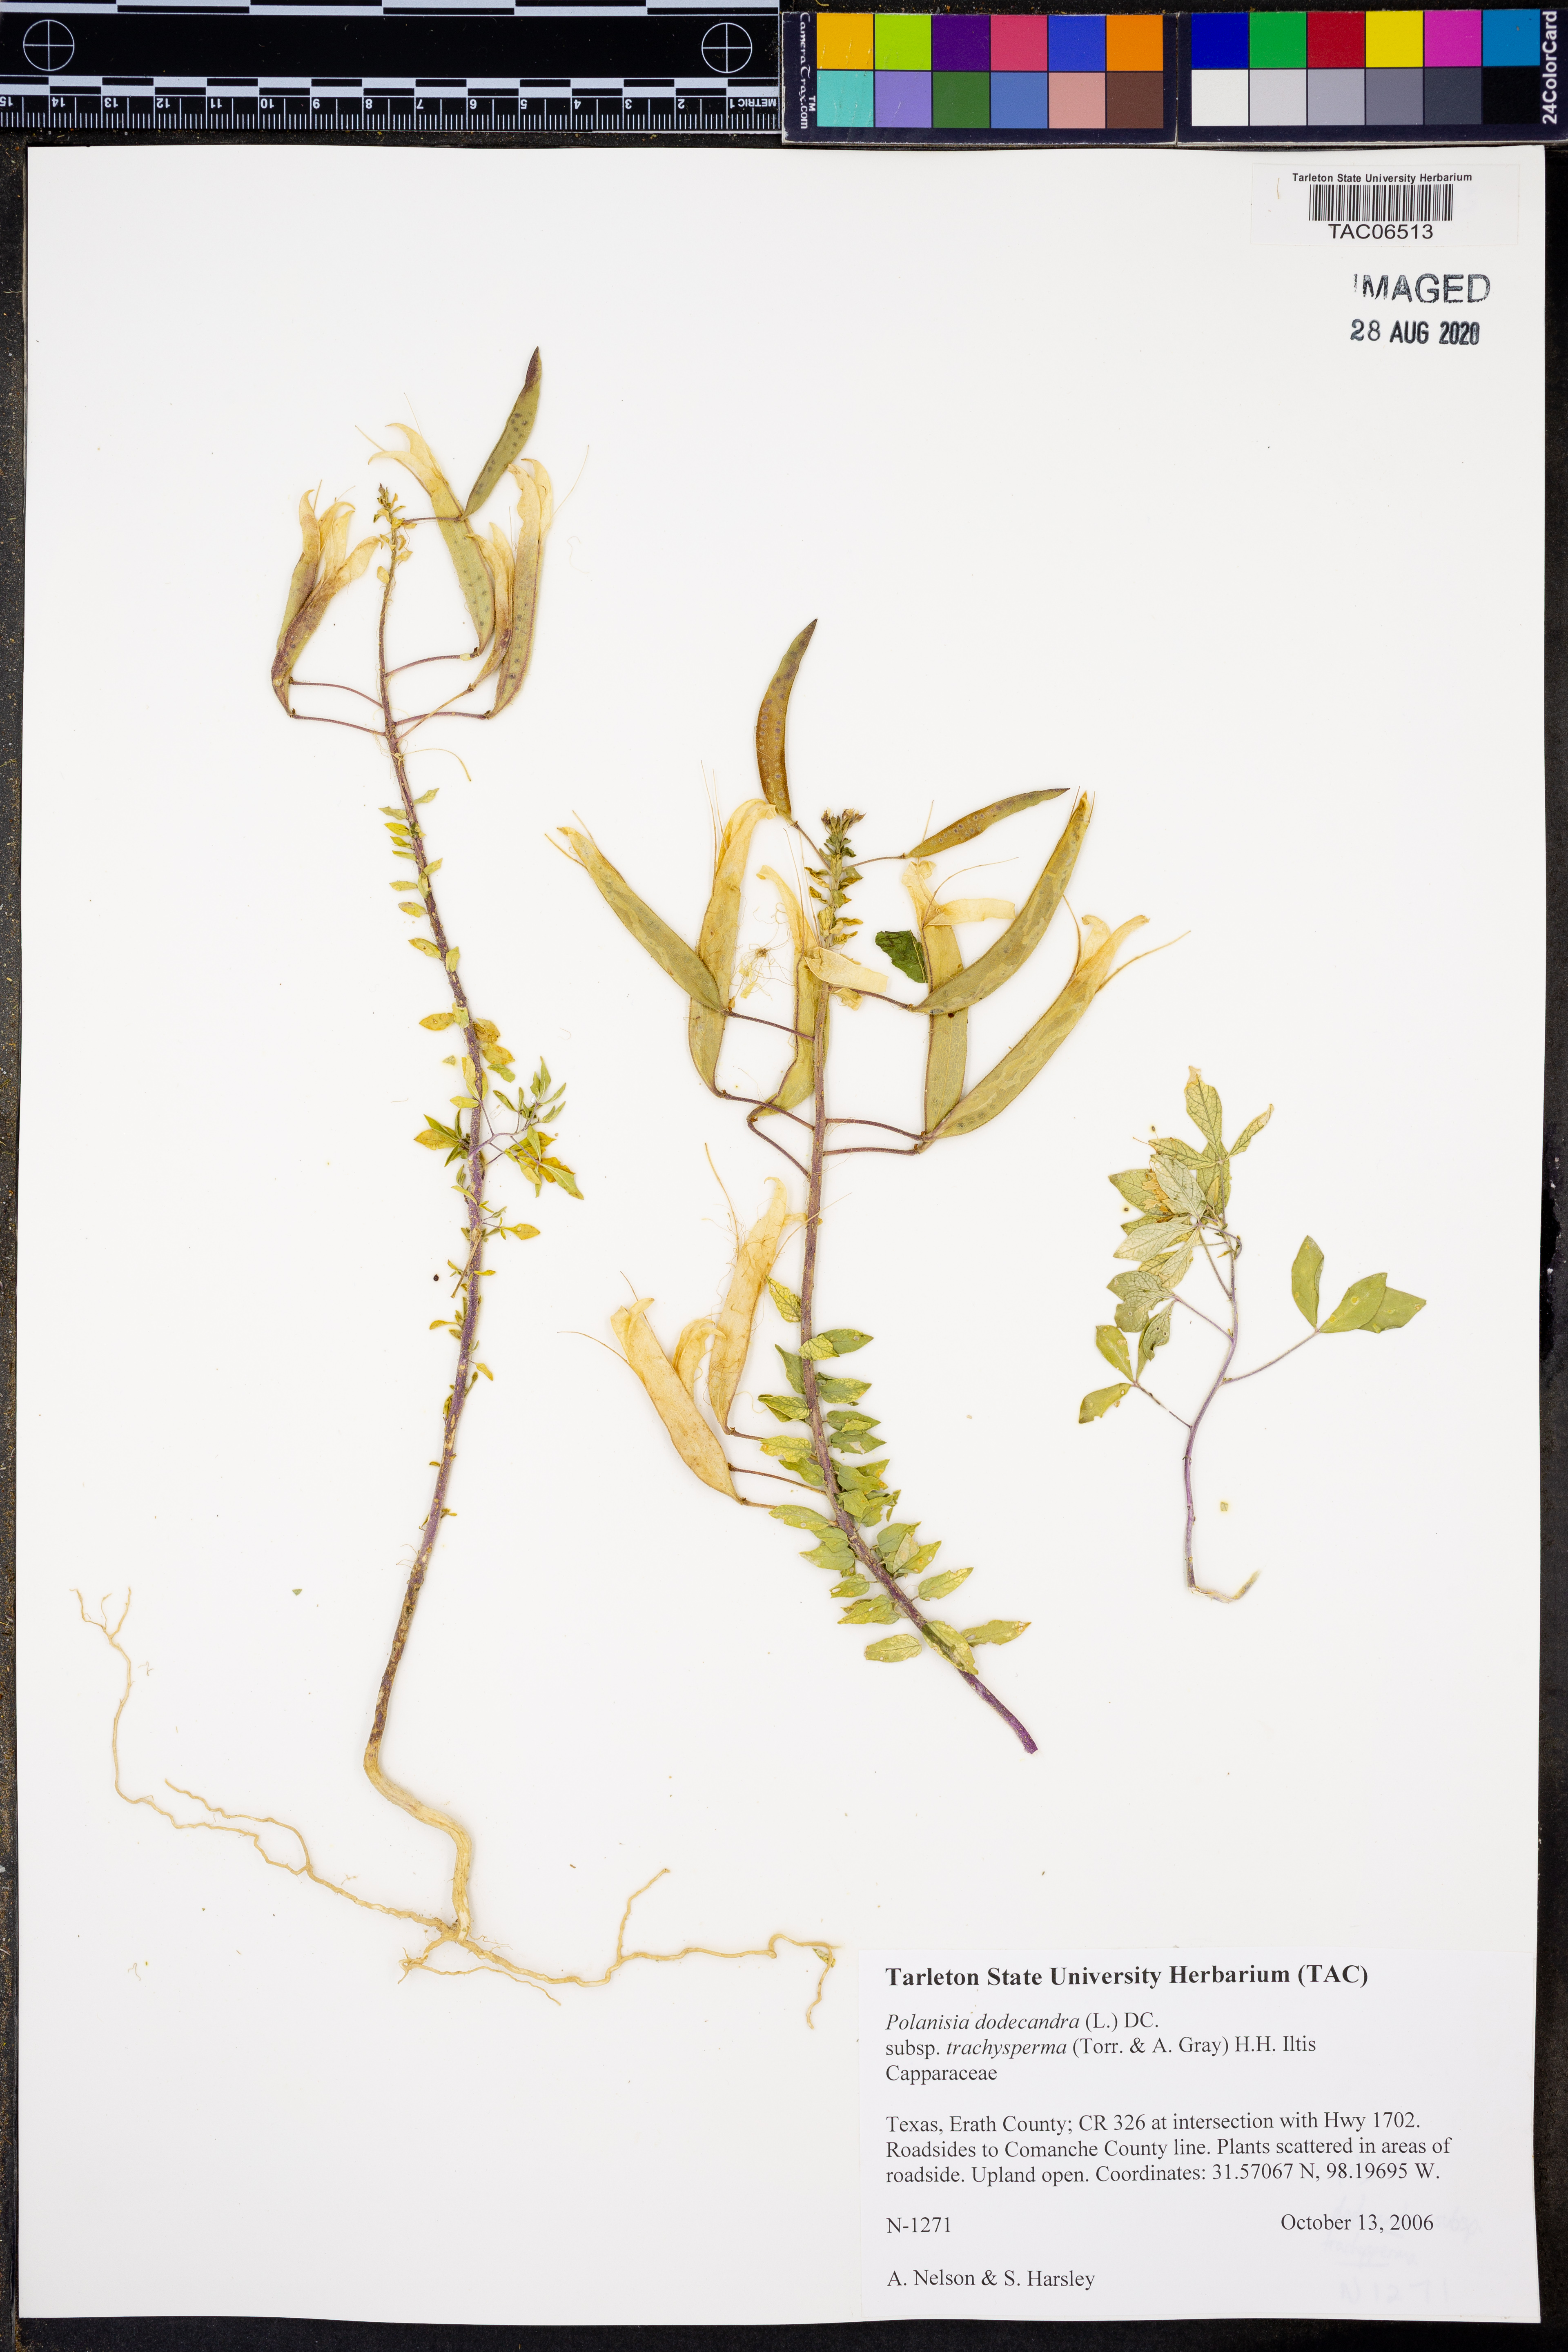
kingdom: Plantae
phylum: Tracheophyta
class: Magnoliopsida
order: Brassicales
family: Cleomaceae
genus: Polanisia
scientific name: Polanisia trachysperma
